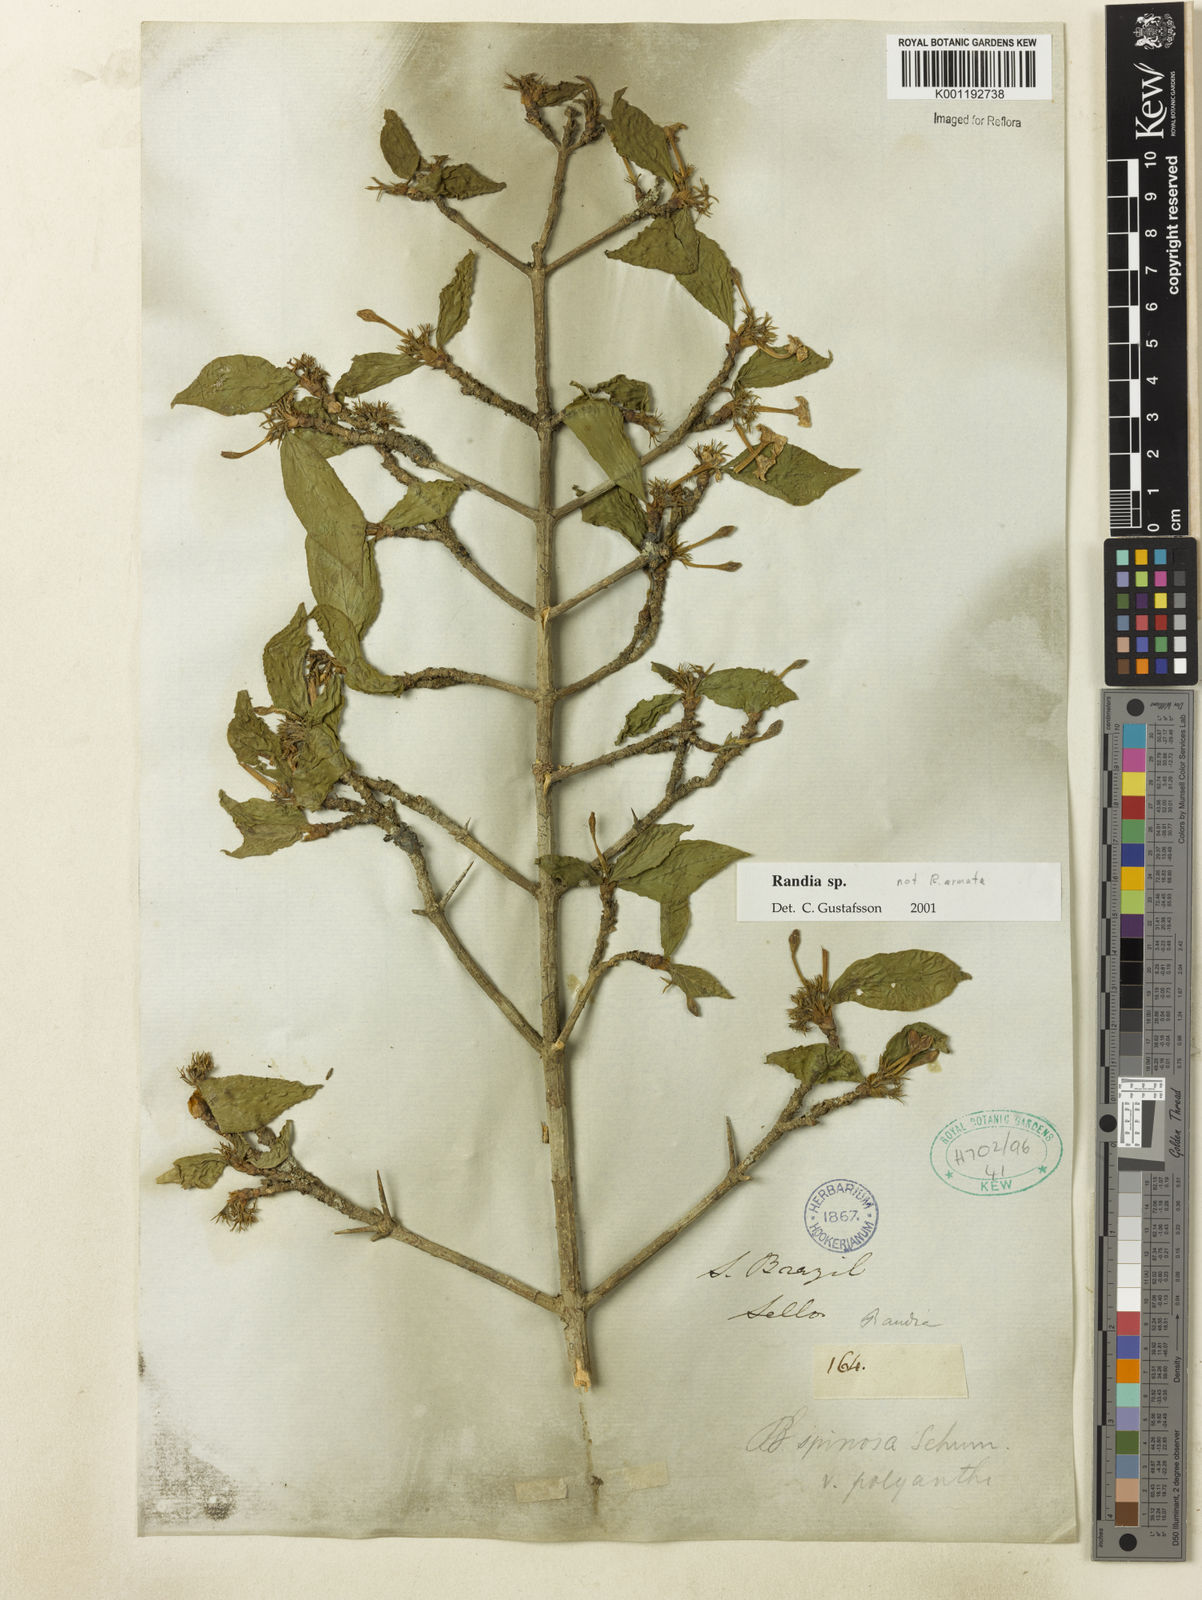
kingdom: Plantae
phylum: Tracheophyta
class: Magnoliopsida
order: Gentianales
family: Rubiaceae
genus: Randia
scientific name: Randia
